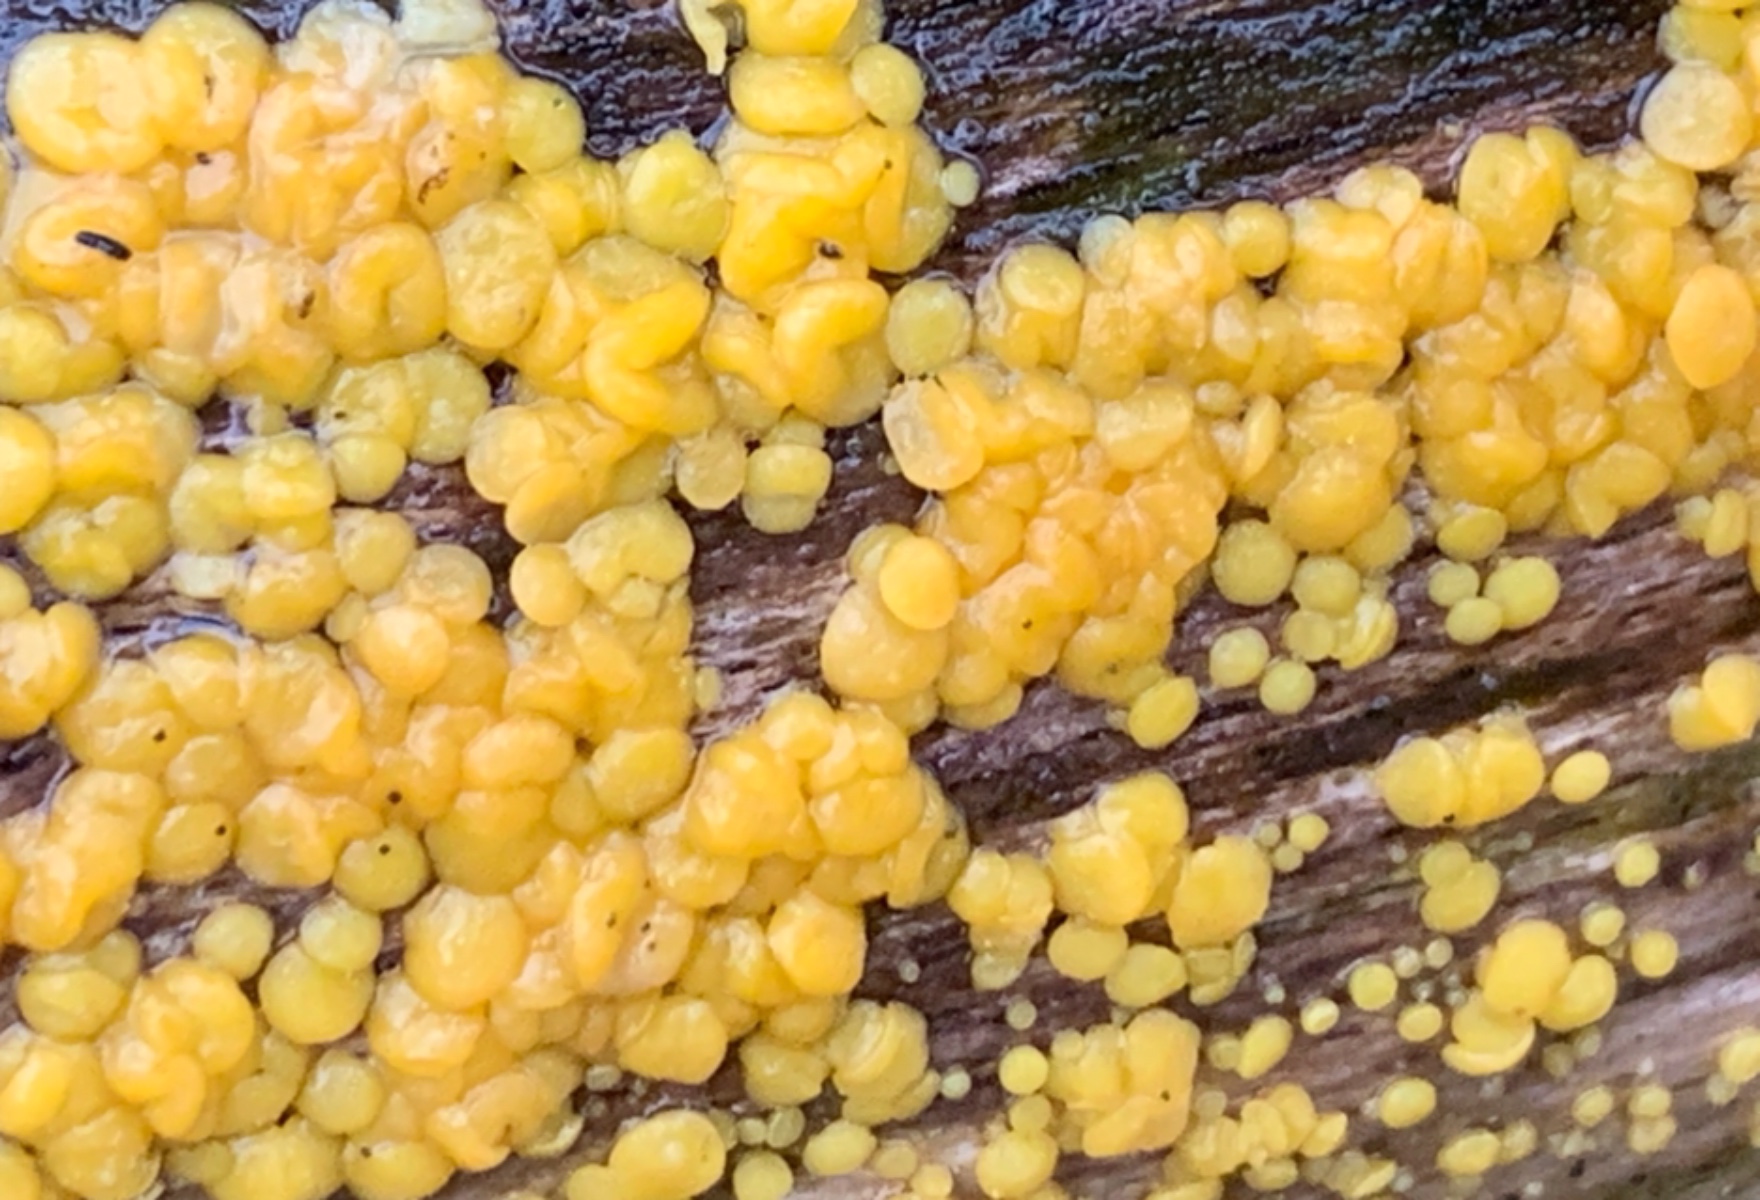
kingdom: Fungi
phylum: Ascomycota
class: Leotiomycetes
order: Helotiales
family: Pezizellaceae
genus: Calycina
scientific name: Calycina citrina
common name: almindelig gulskive
